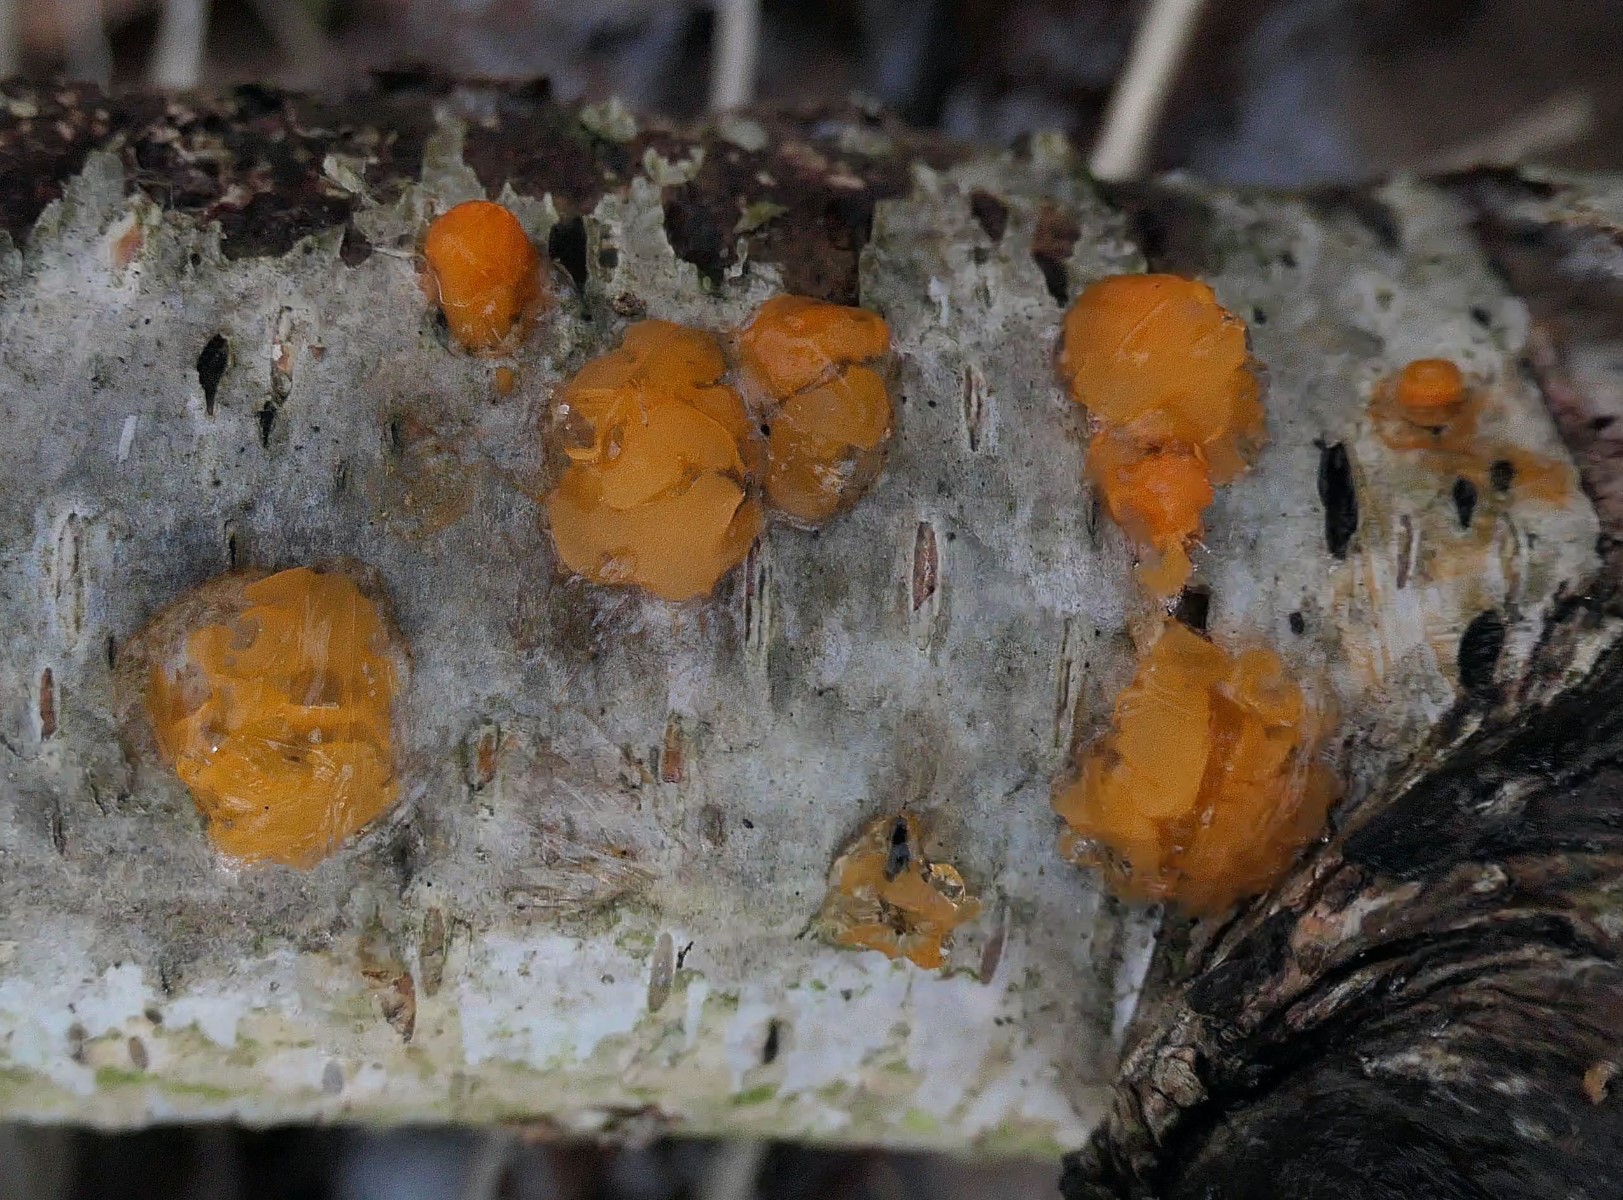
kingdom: Fungi
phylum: Basidiomycota
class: Dacrymycetes
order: Dacrymycetales
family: Dacrymycetaceae
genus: Dacrymyces
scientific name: Dacrymyces lacrymalis
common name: rynket tåresvamp
